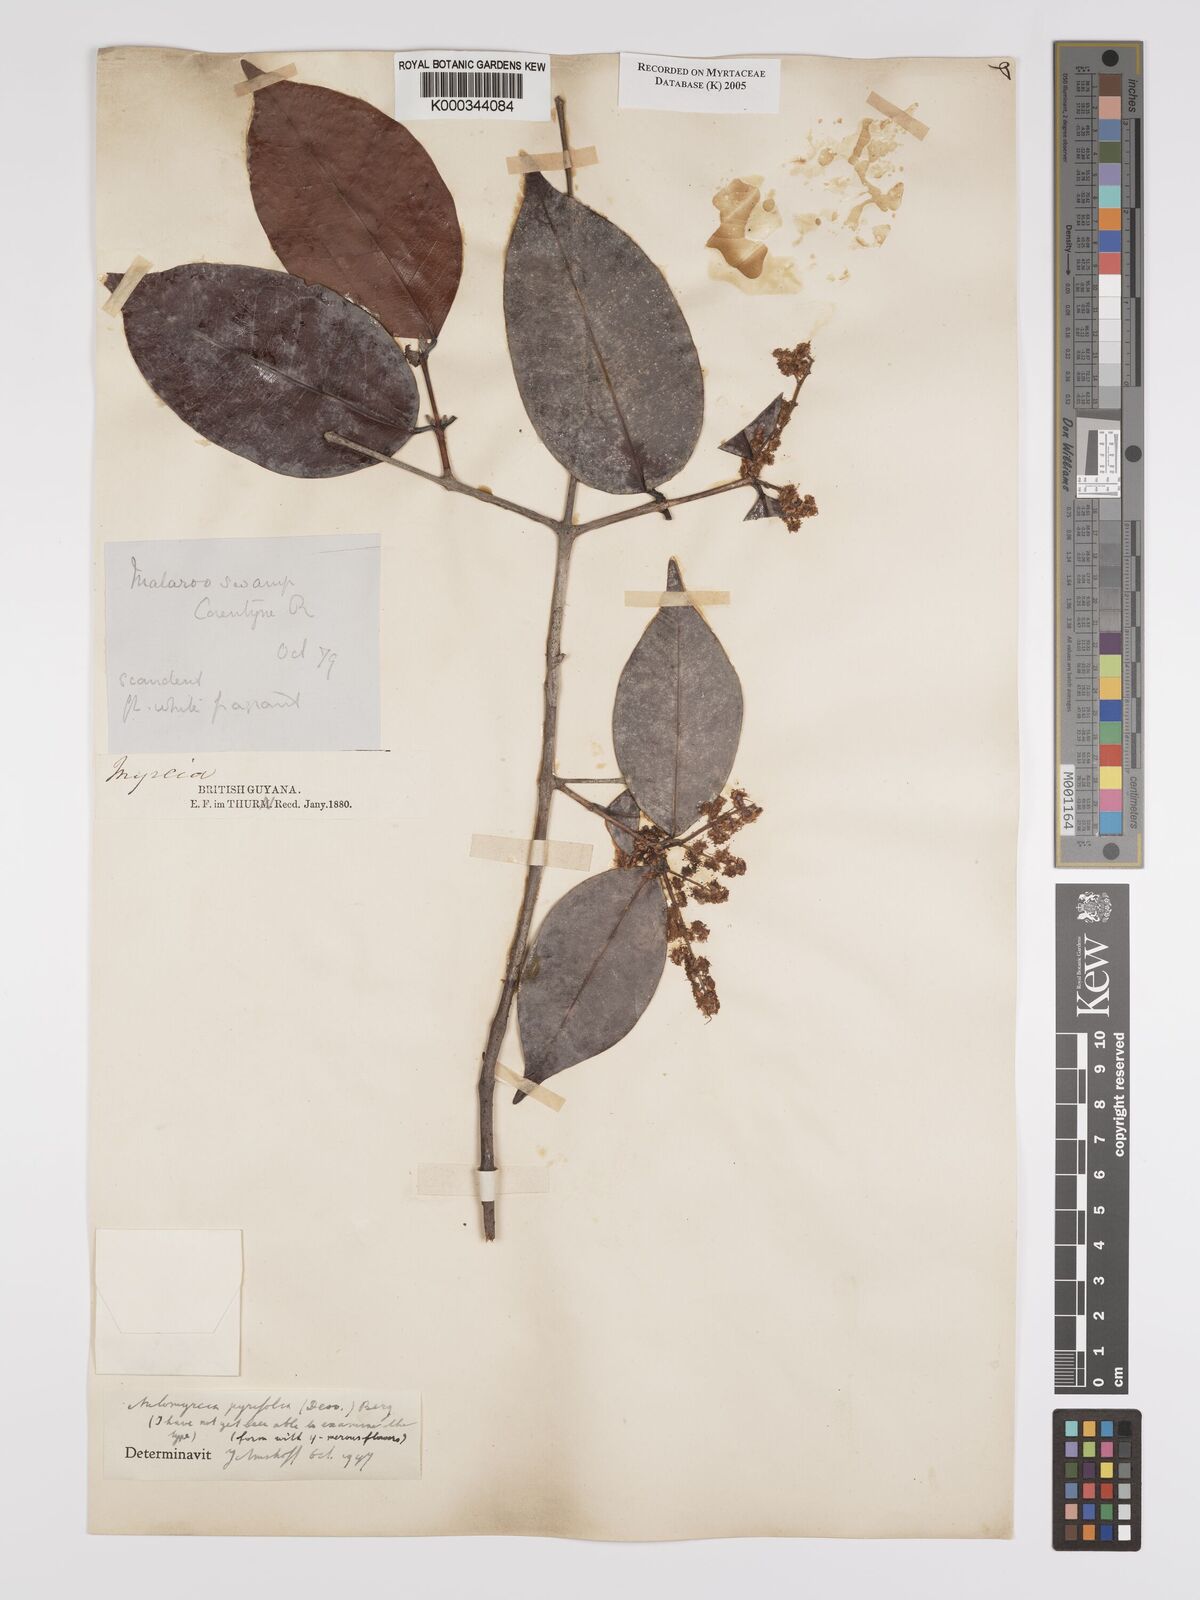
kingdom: Plantae
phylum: Tracheophyta
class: Magnoliopsida
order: Myrtales
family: Myrtaceae
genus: Myrcia
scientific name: Myrcia pyrifolia
